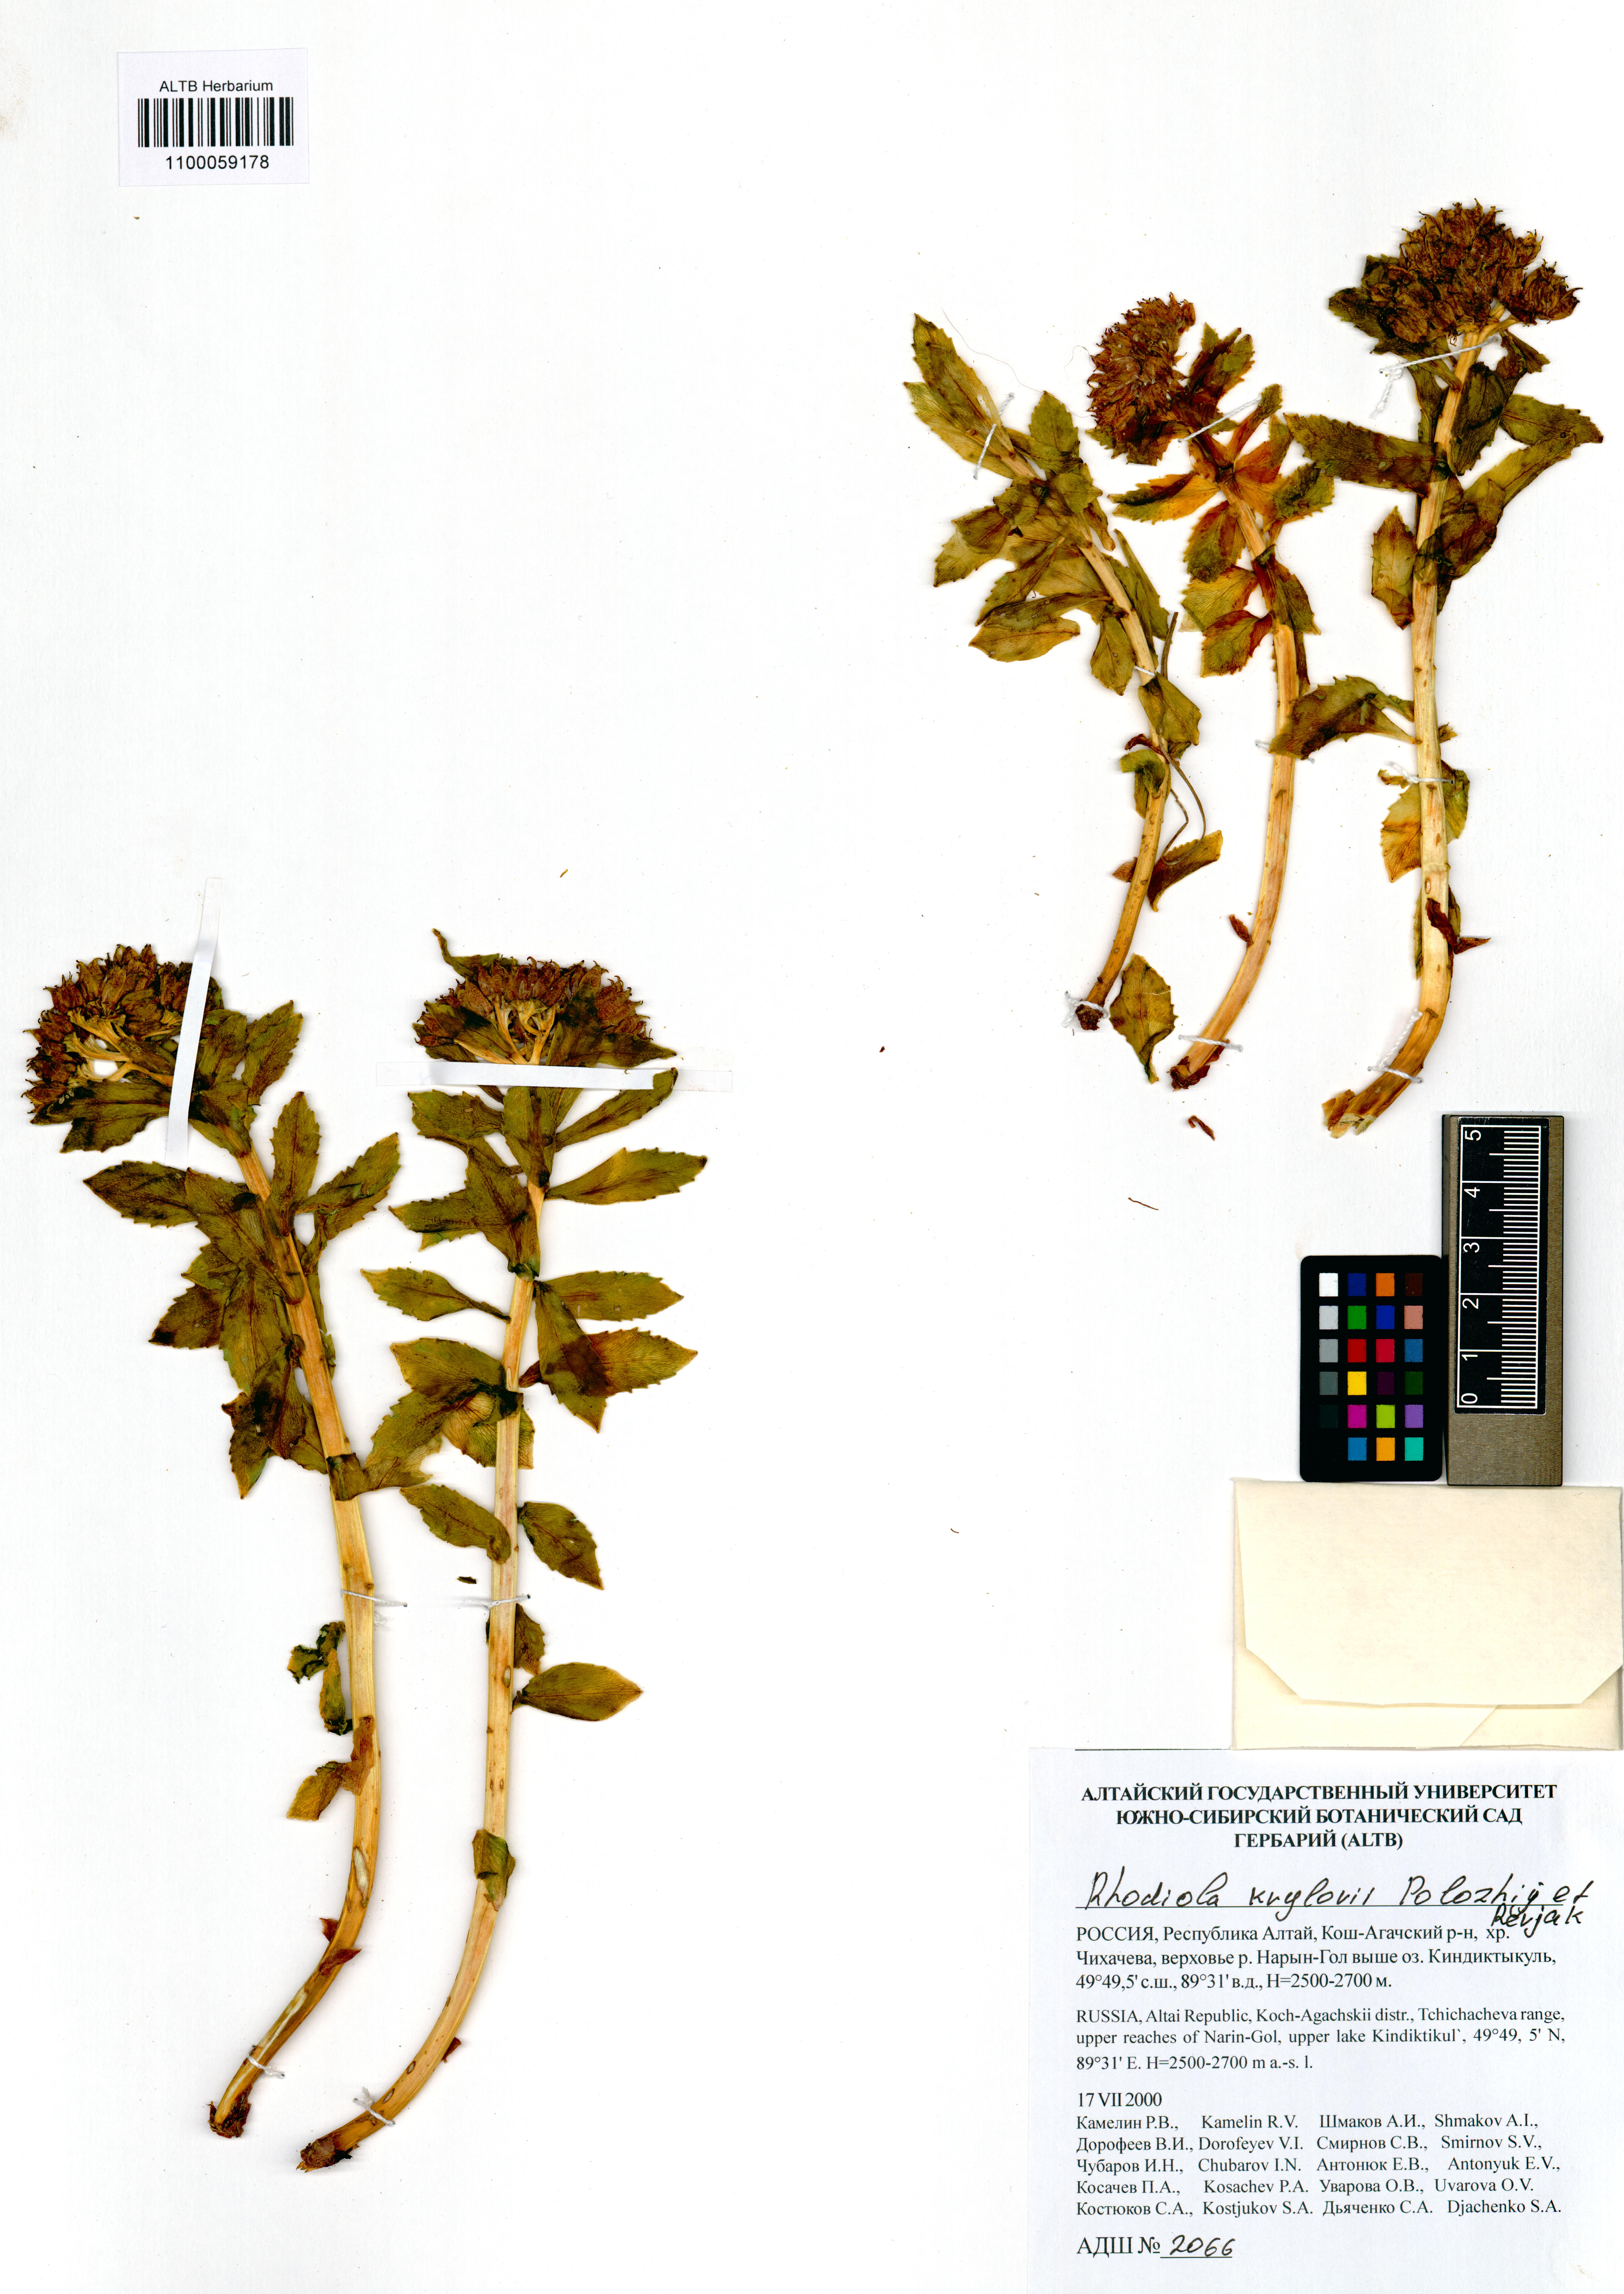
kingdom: Plantae
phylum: Tracheophyta
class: Magnoliopsida
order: Saxifragales
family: Crassulaceae
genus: Rhodiola
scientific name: Rhodiola stephani
